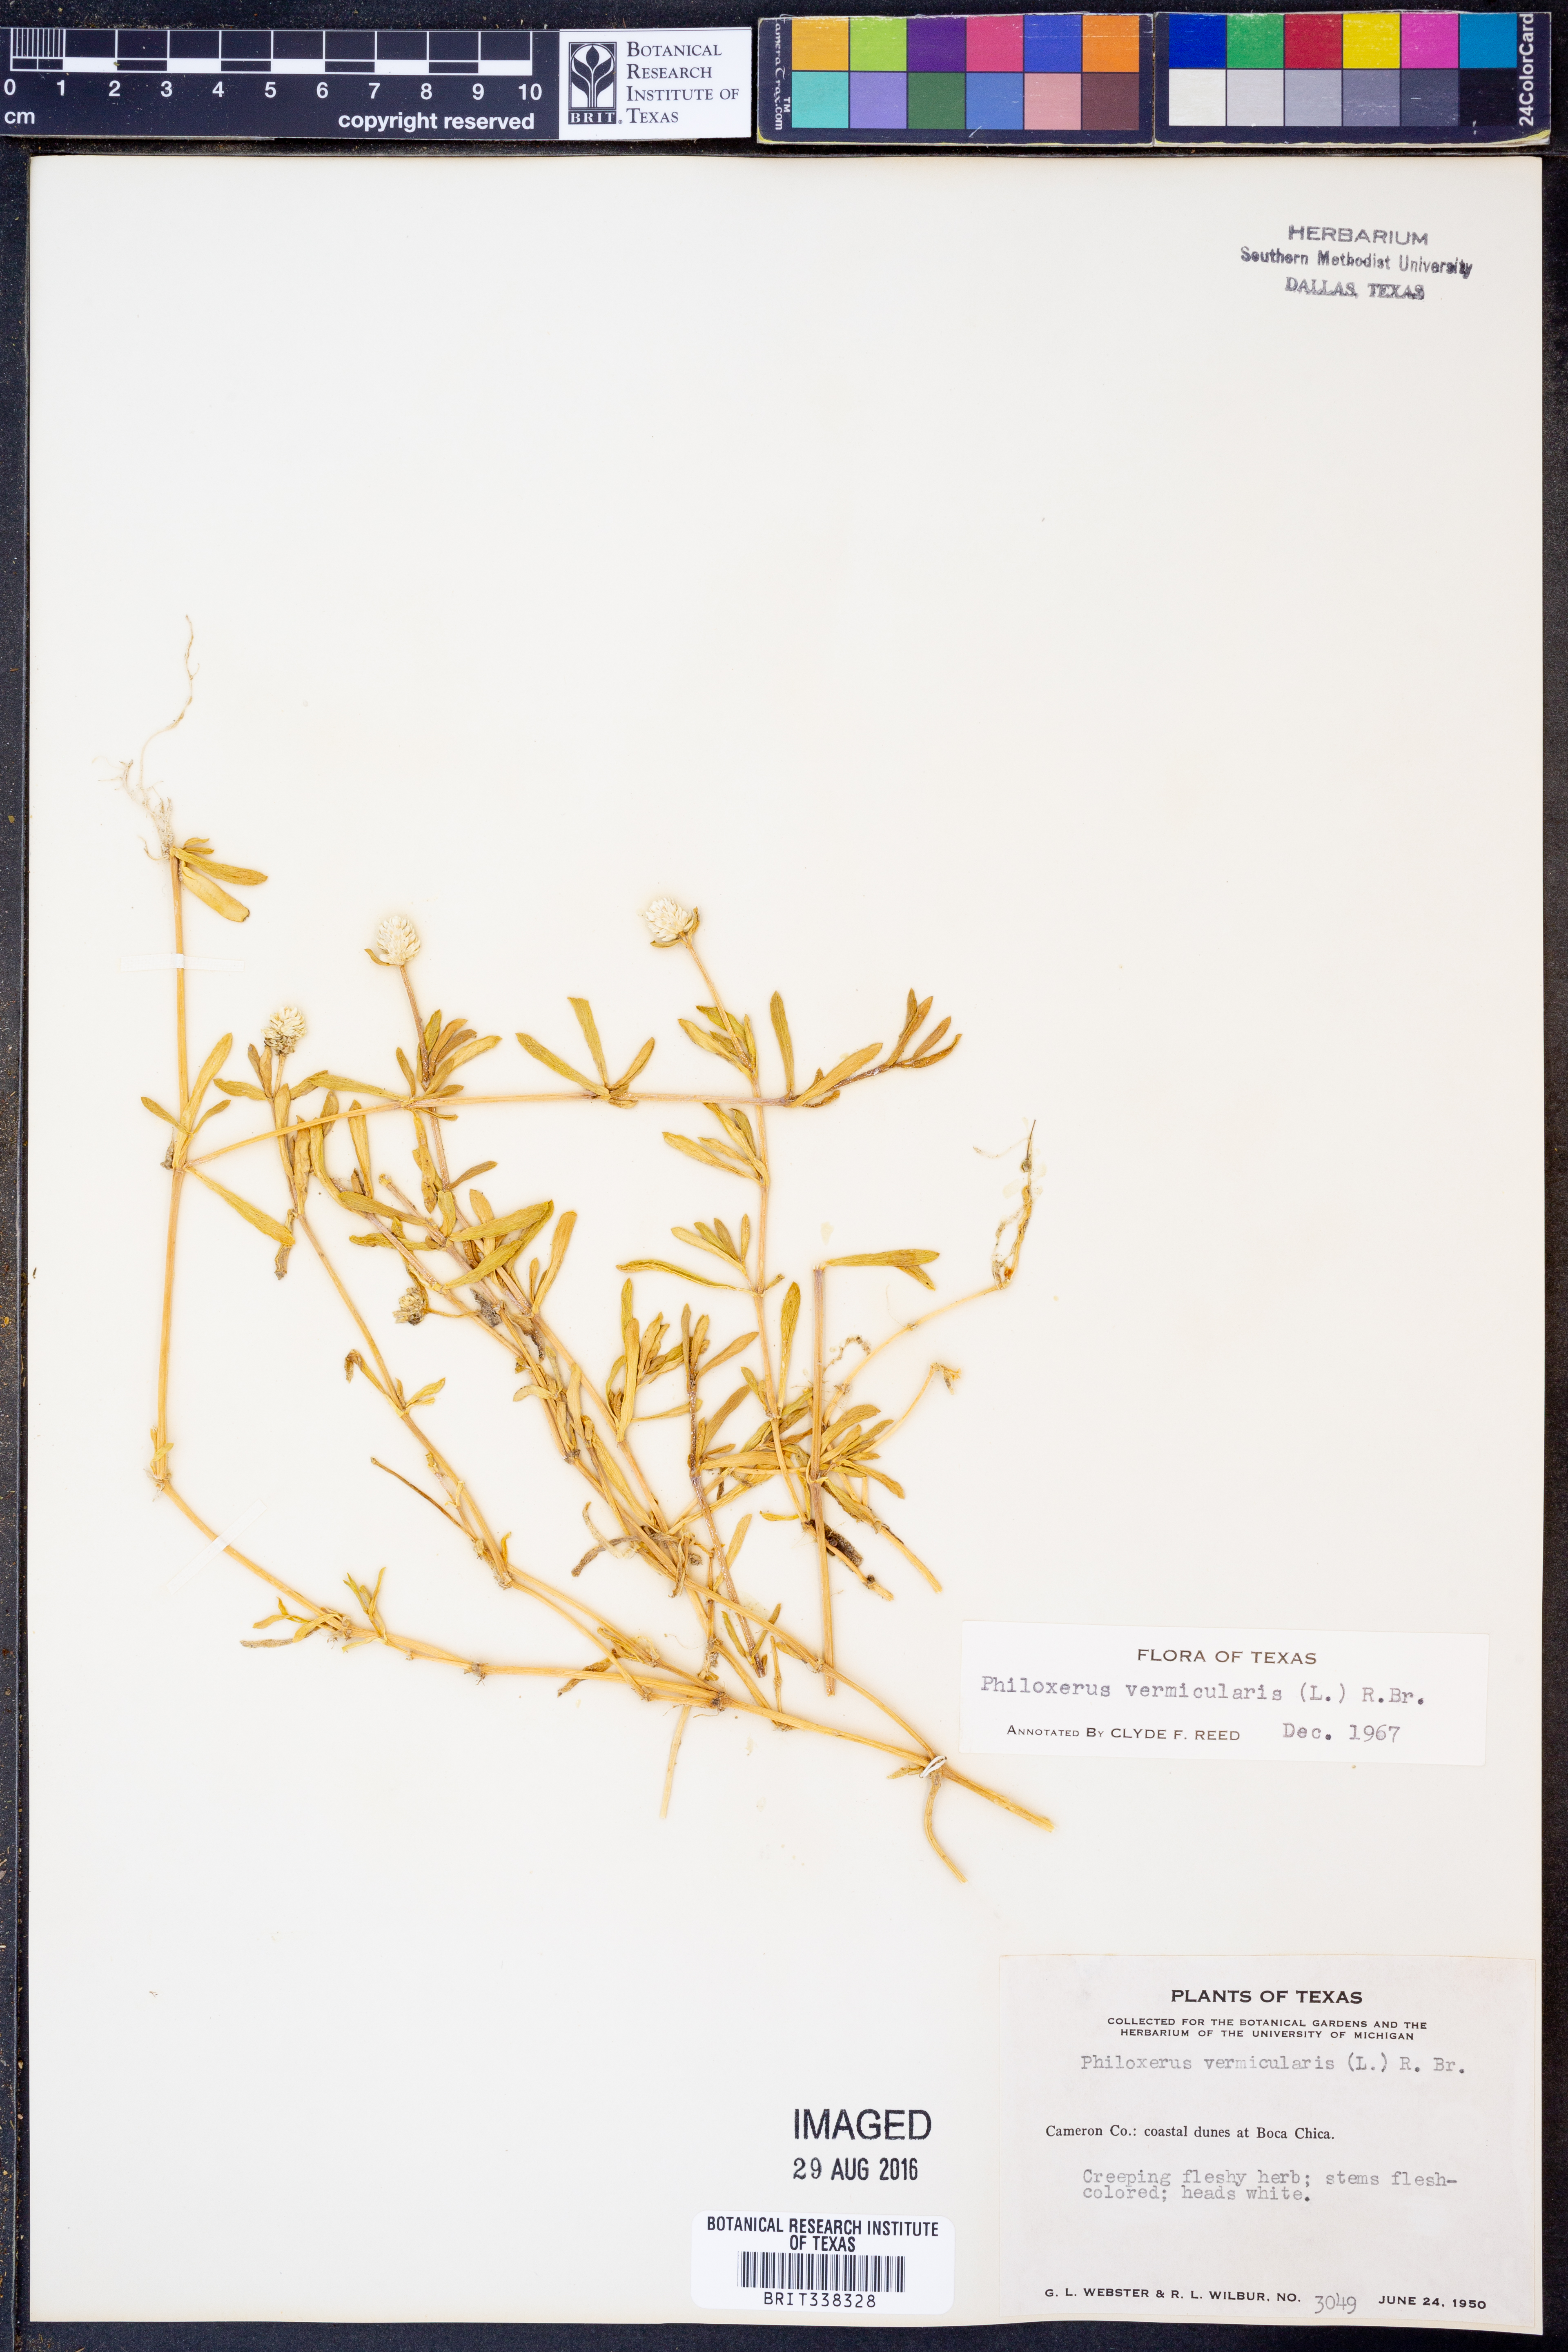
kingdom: Plantae
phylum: Tracheophyta
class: Magnoliopsida
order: Caryophyllales
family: Amaranthaceae
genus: Gomphrena
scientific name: Gomphrena
